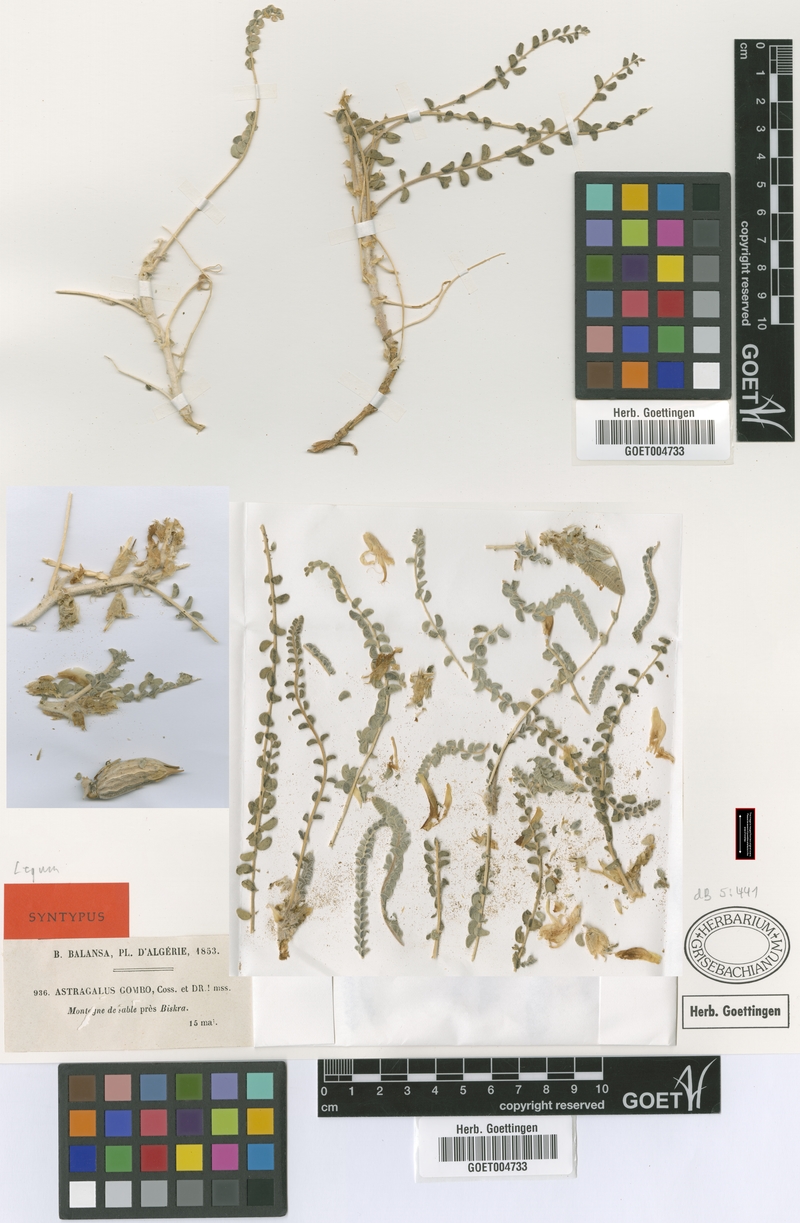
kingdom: Plantae
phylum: Tracheophyta
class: Magnoliopsida
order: Fabales
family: Fabaceae
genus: Astragalus
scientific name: Astragalus gombo
